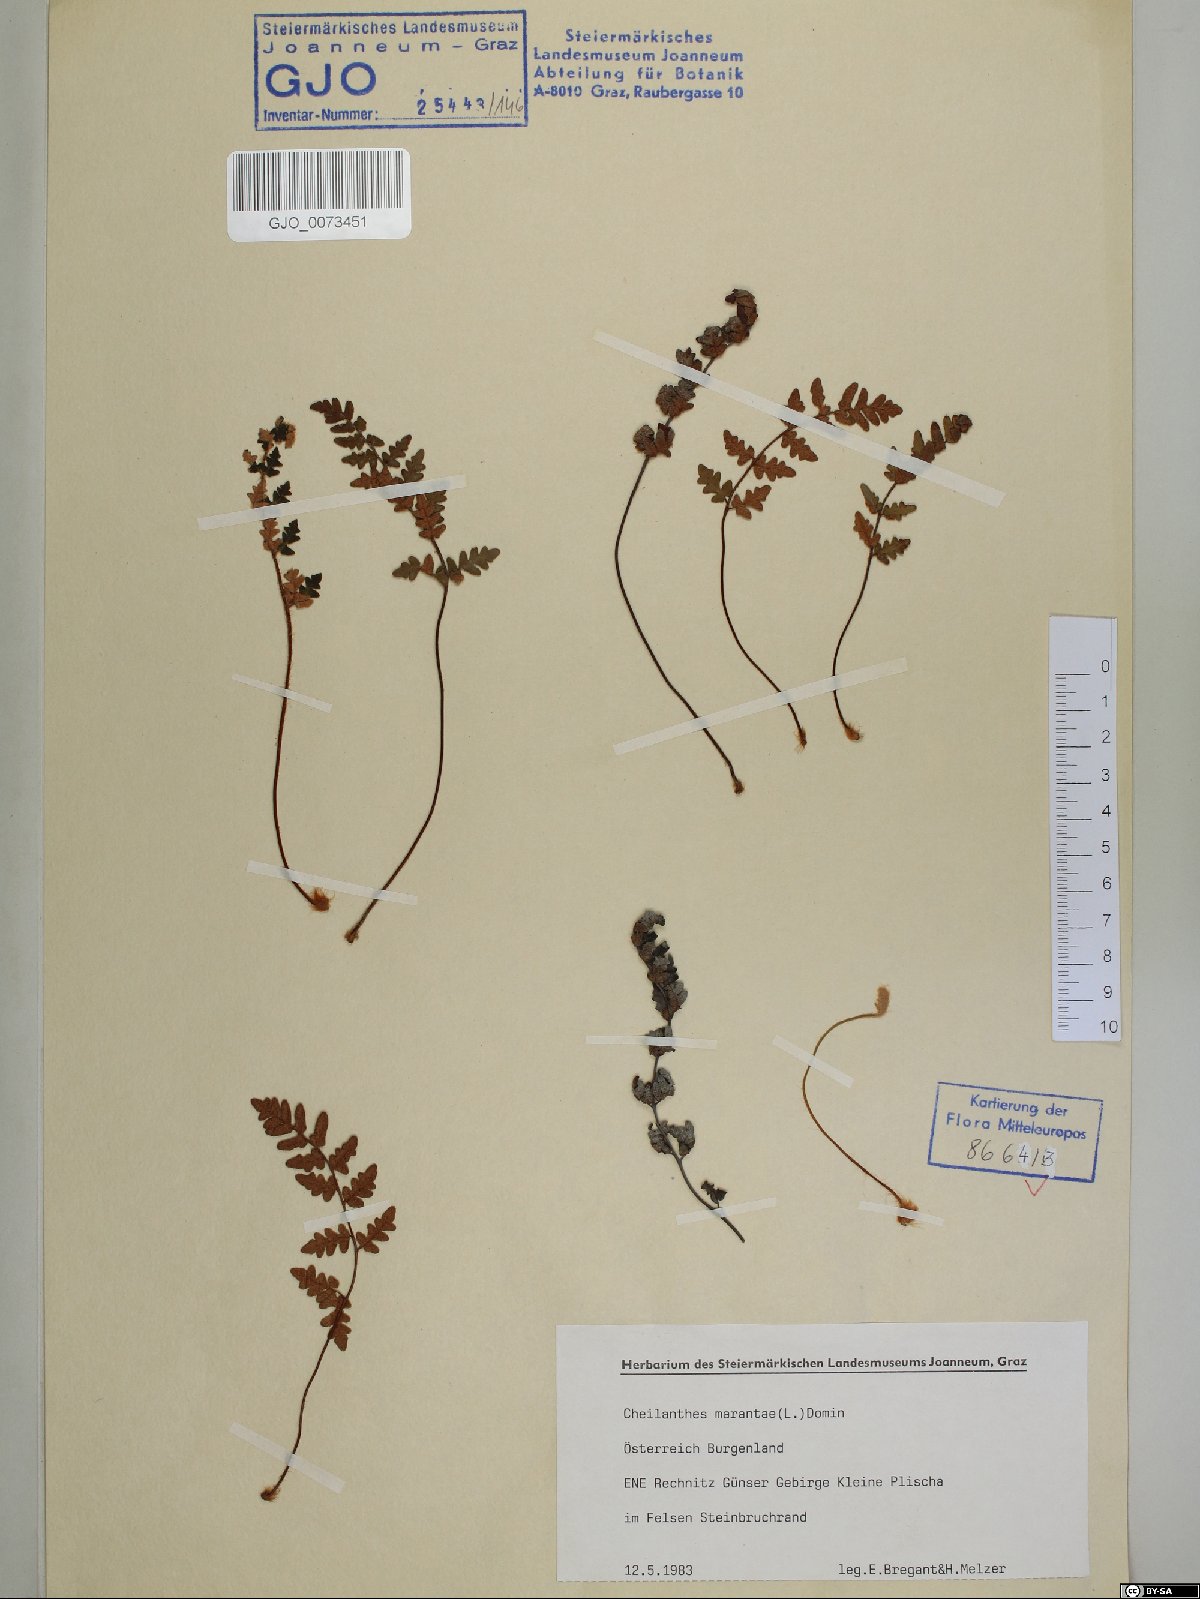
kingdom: Plantae
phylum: Tracheophyta
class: Polypodiopsida
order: Polypodiales
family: Pteridaceae
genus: Paragymnopteris
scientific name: Paragymnopteris marantae
